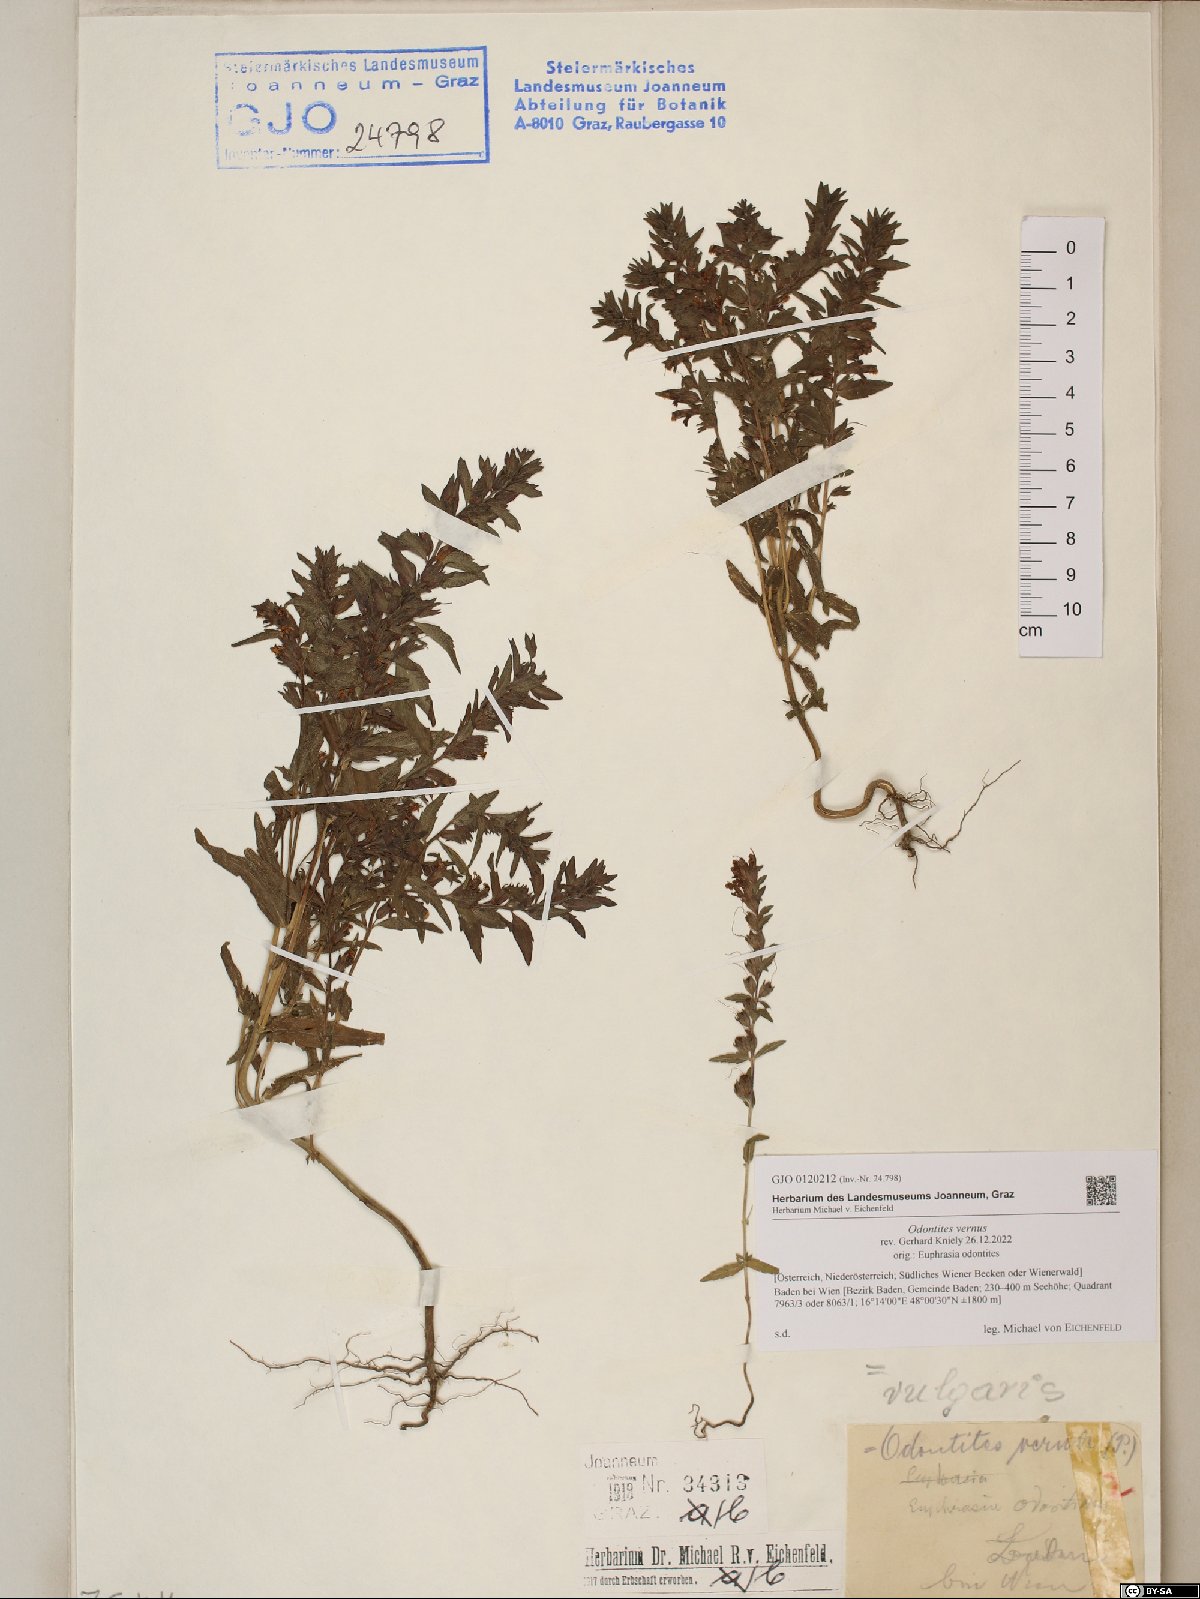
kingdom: Plantae
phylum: Tracheophyta
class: Magnoliopsida
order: Lamiales
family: Orobanchaceae
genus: Odontites
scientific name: Odontites vernus
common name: Red bartsia
